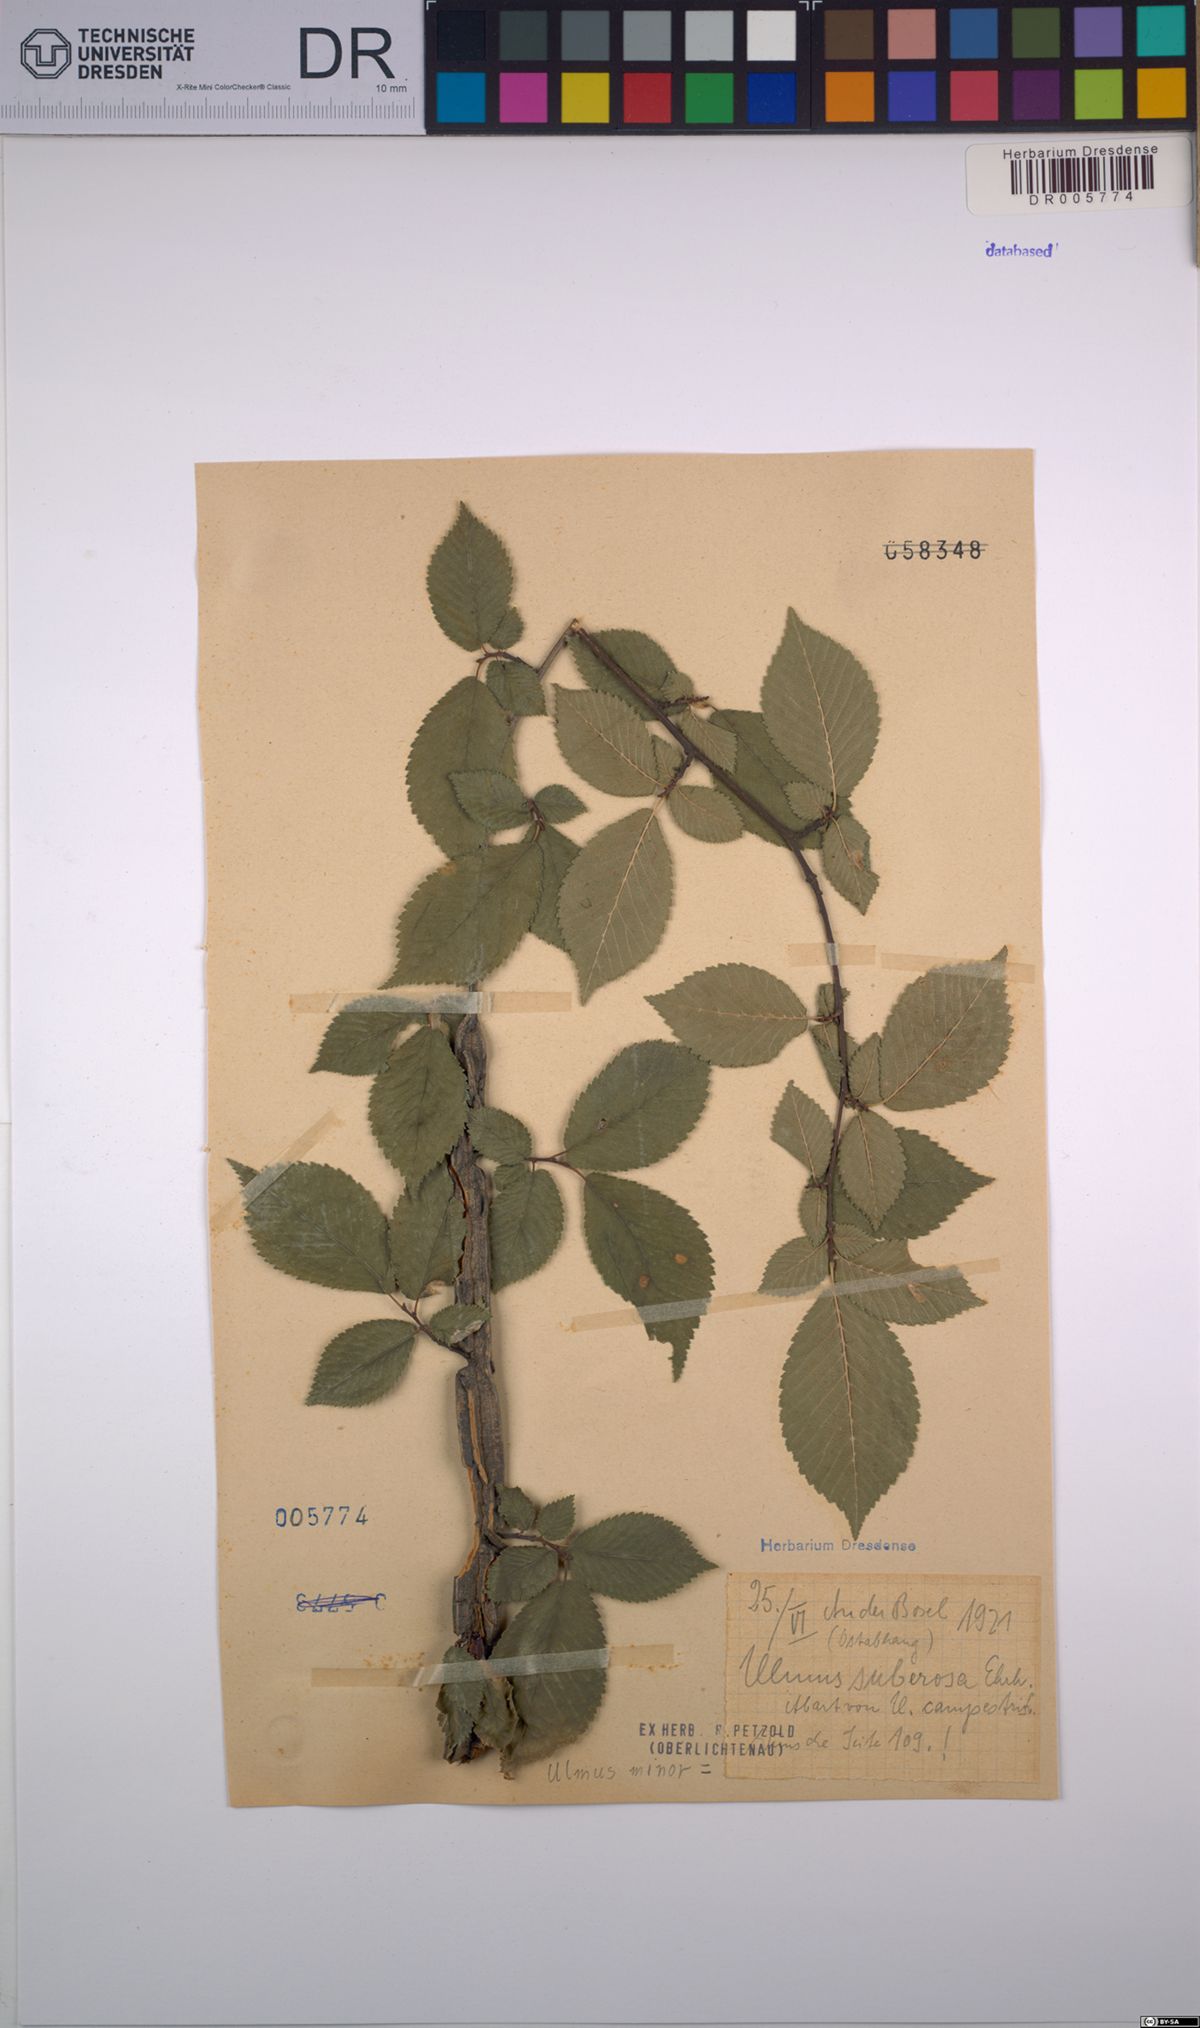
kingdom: Plantae
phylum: Tracheophyta
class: Magnoliopsida
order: Rosales
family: Ulmaceae
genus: Ulmus
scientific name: Ulmus minor
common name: Small-leaved elm
